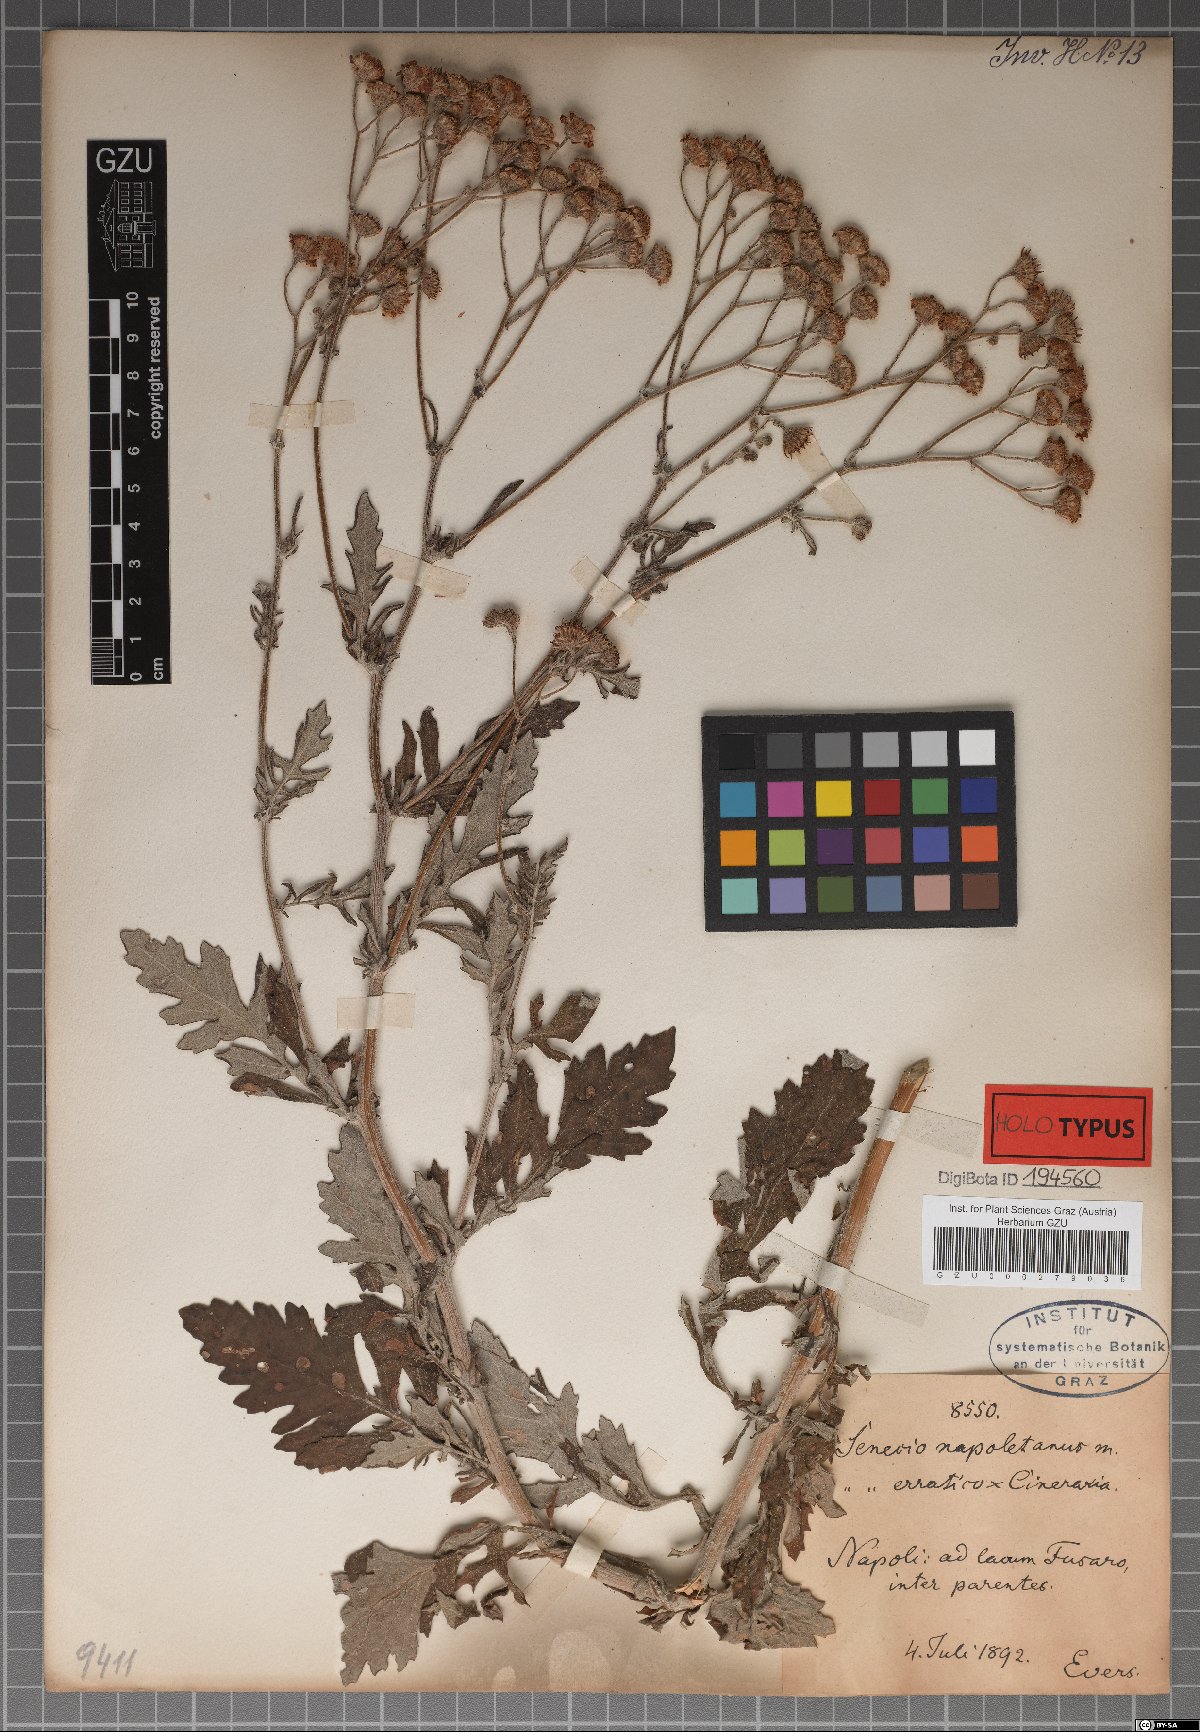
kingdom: Plantae
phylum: Tracheophyta
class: Magnoliopsida
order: Asterales
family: Asteraceae
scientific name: Asteraceae
